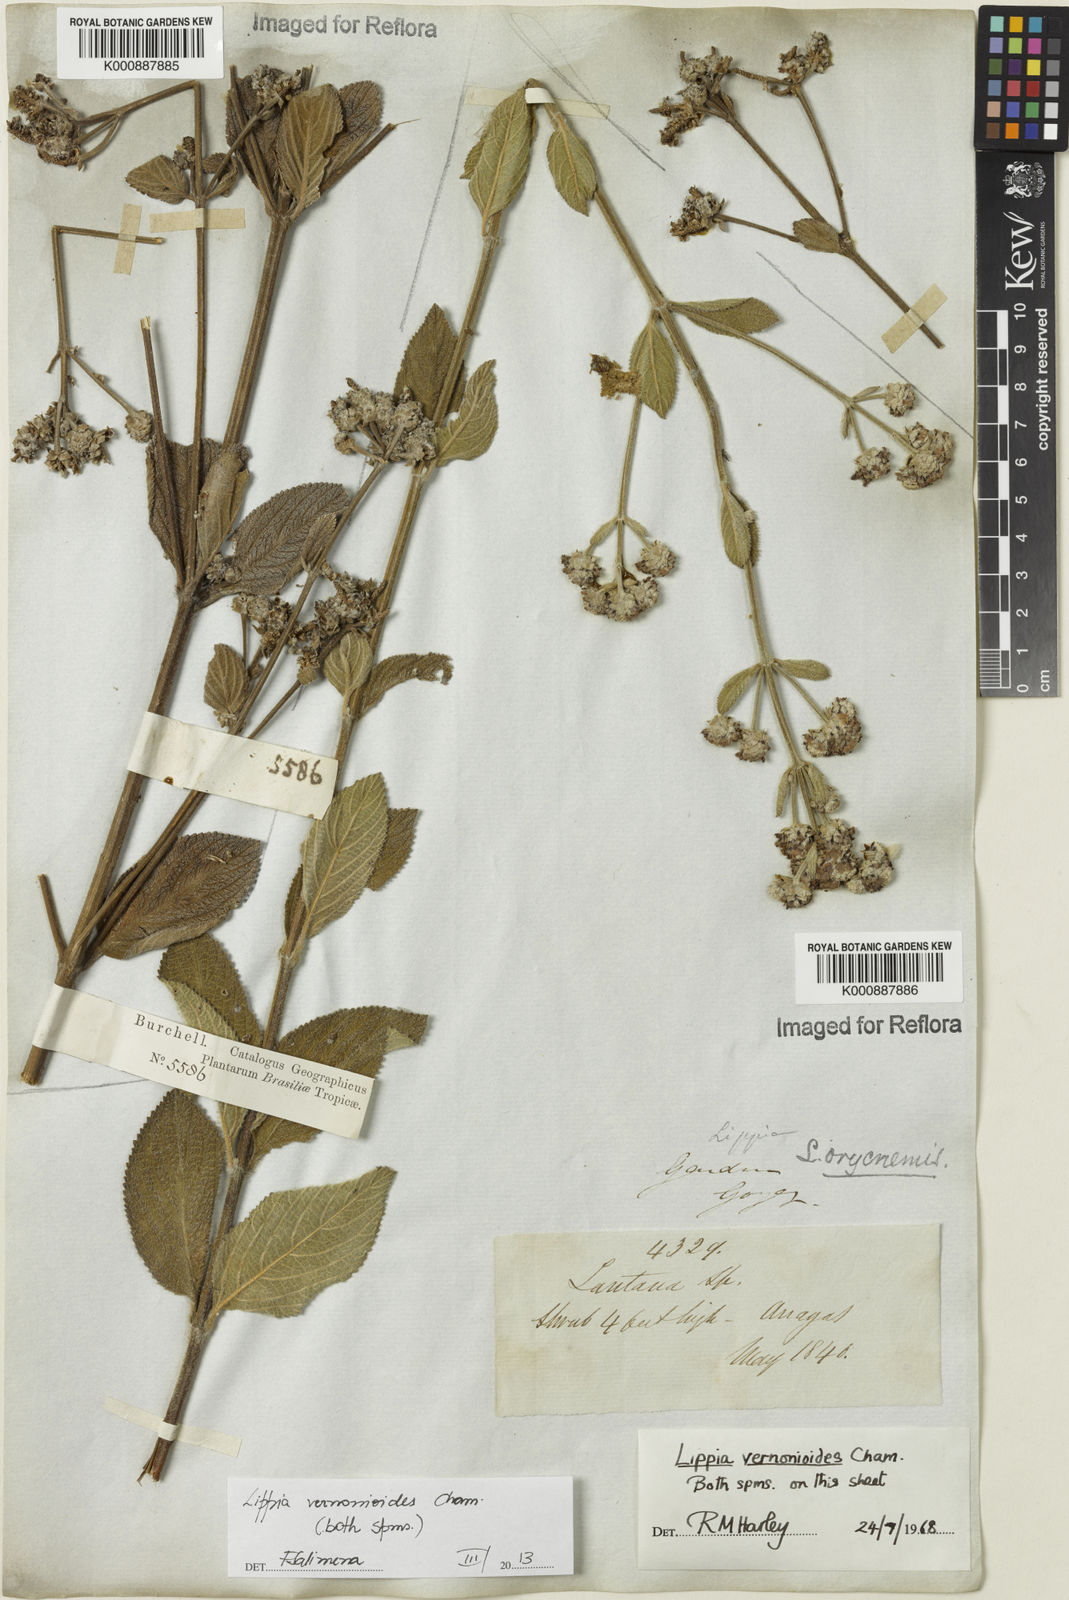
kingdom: Plantae
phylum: Tracheophyta
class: Magnoliopsida
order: Lamiales
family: Verbenaceae
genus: Lippia
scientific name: Lippia vernonioides
